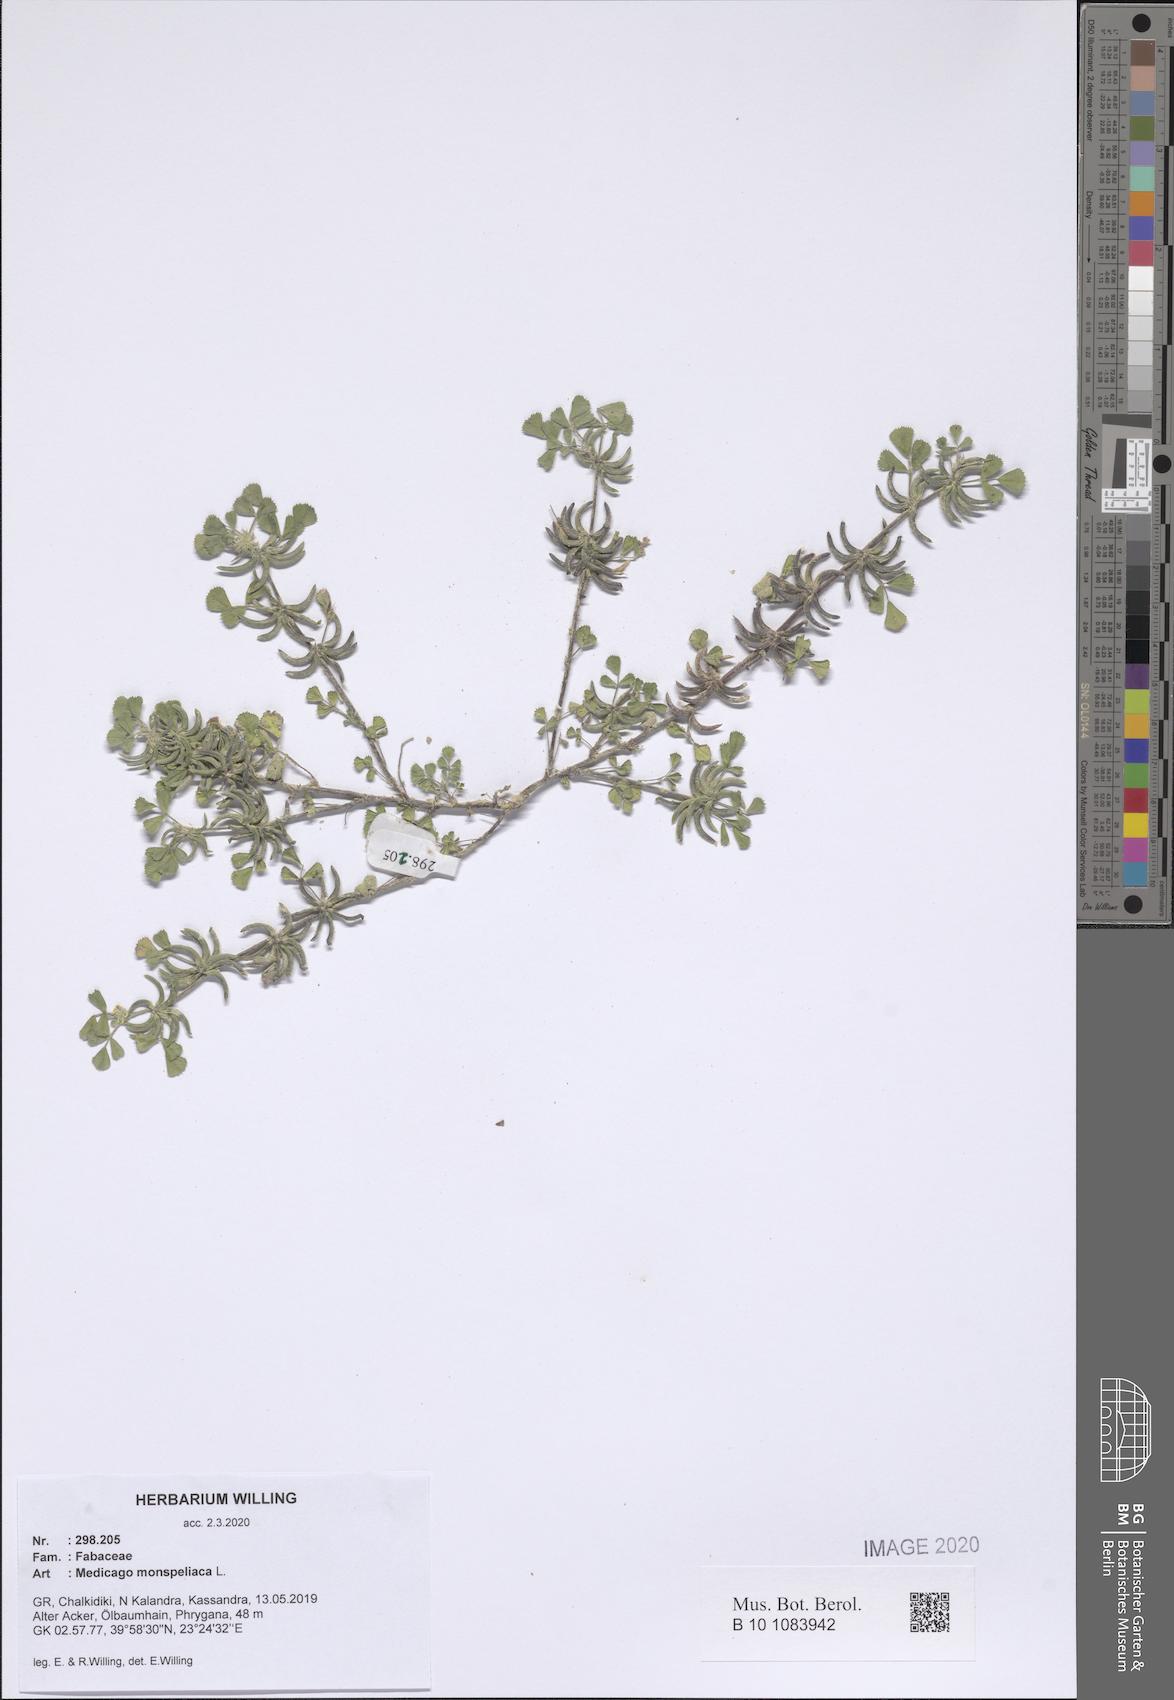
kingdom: Plantae
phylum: Tracheophyta
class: Magnoliopsida
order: Fabales
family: Fabaceae
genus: Medicago
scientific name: Medicago monspeliaca
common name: Hairy medick
